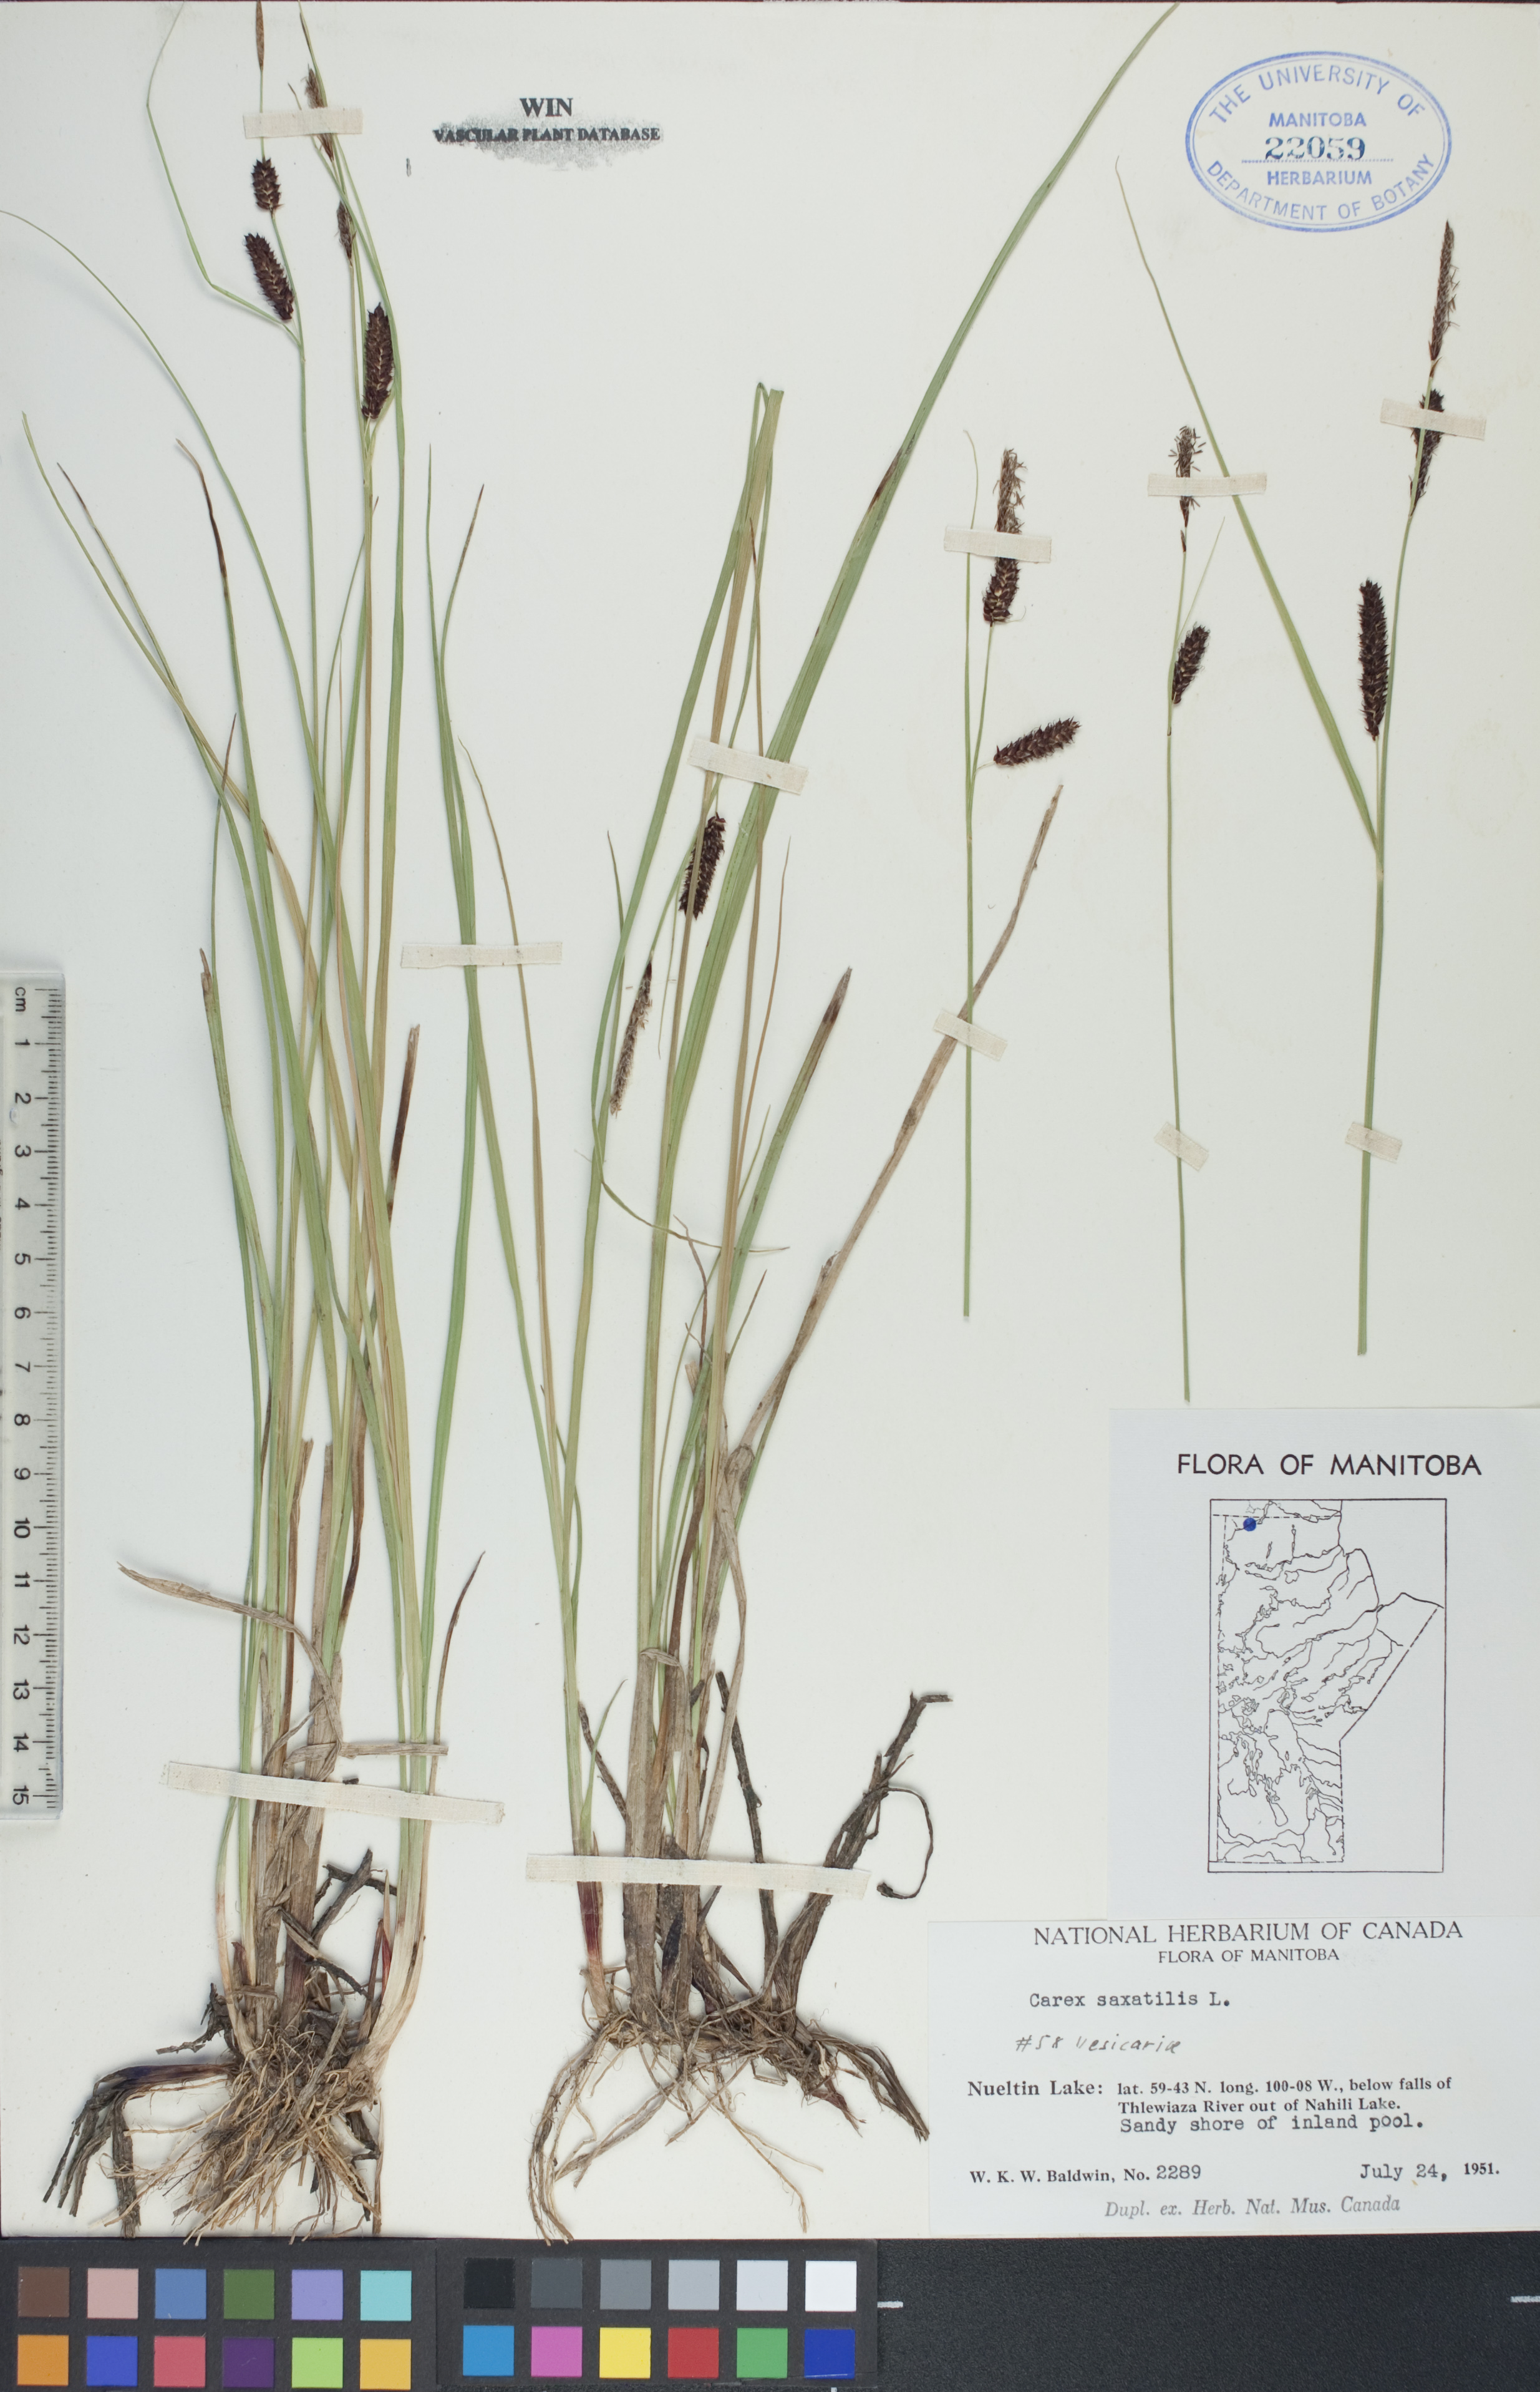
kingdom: Plantae
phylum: Tracheophyta
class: Liliopsida
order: Poales
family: Cyperaceae
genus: Carex
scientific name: Carex saxatilis
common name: Russet sedge
